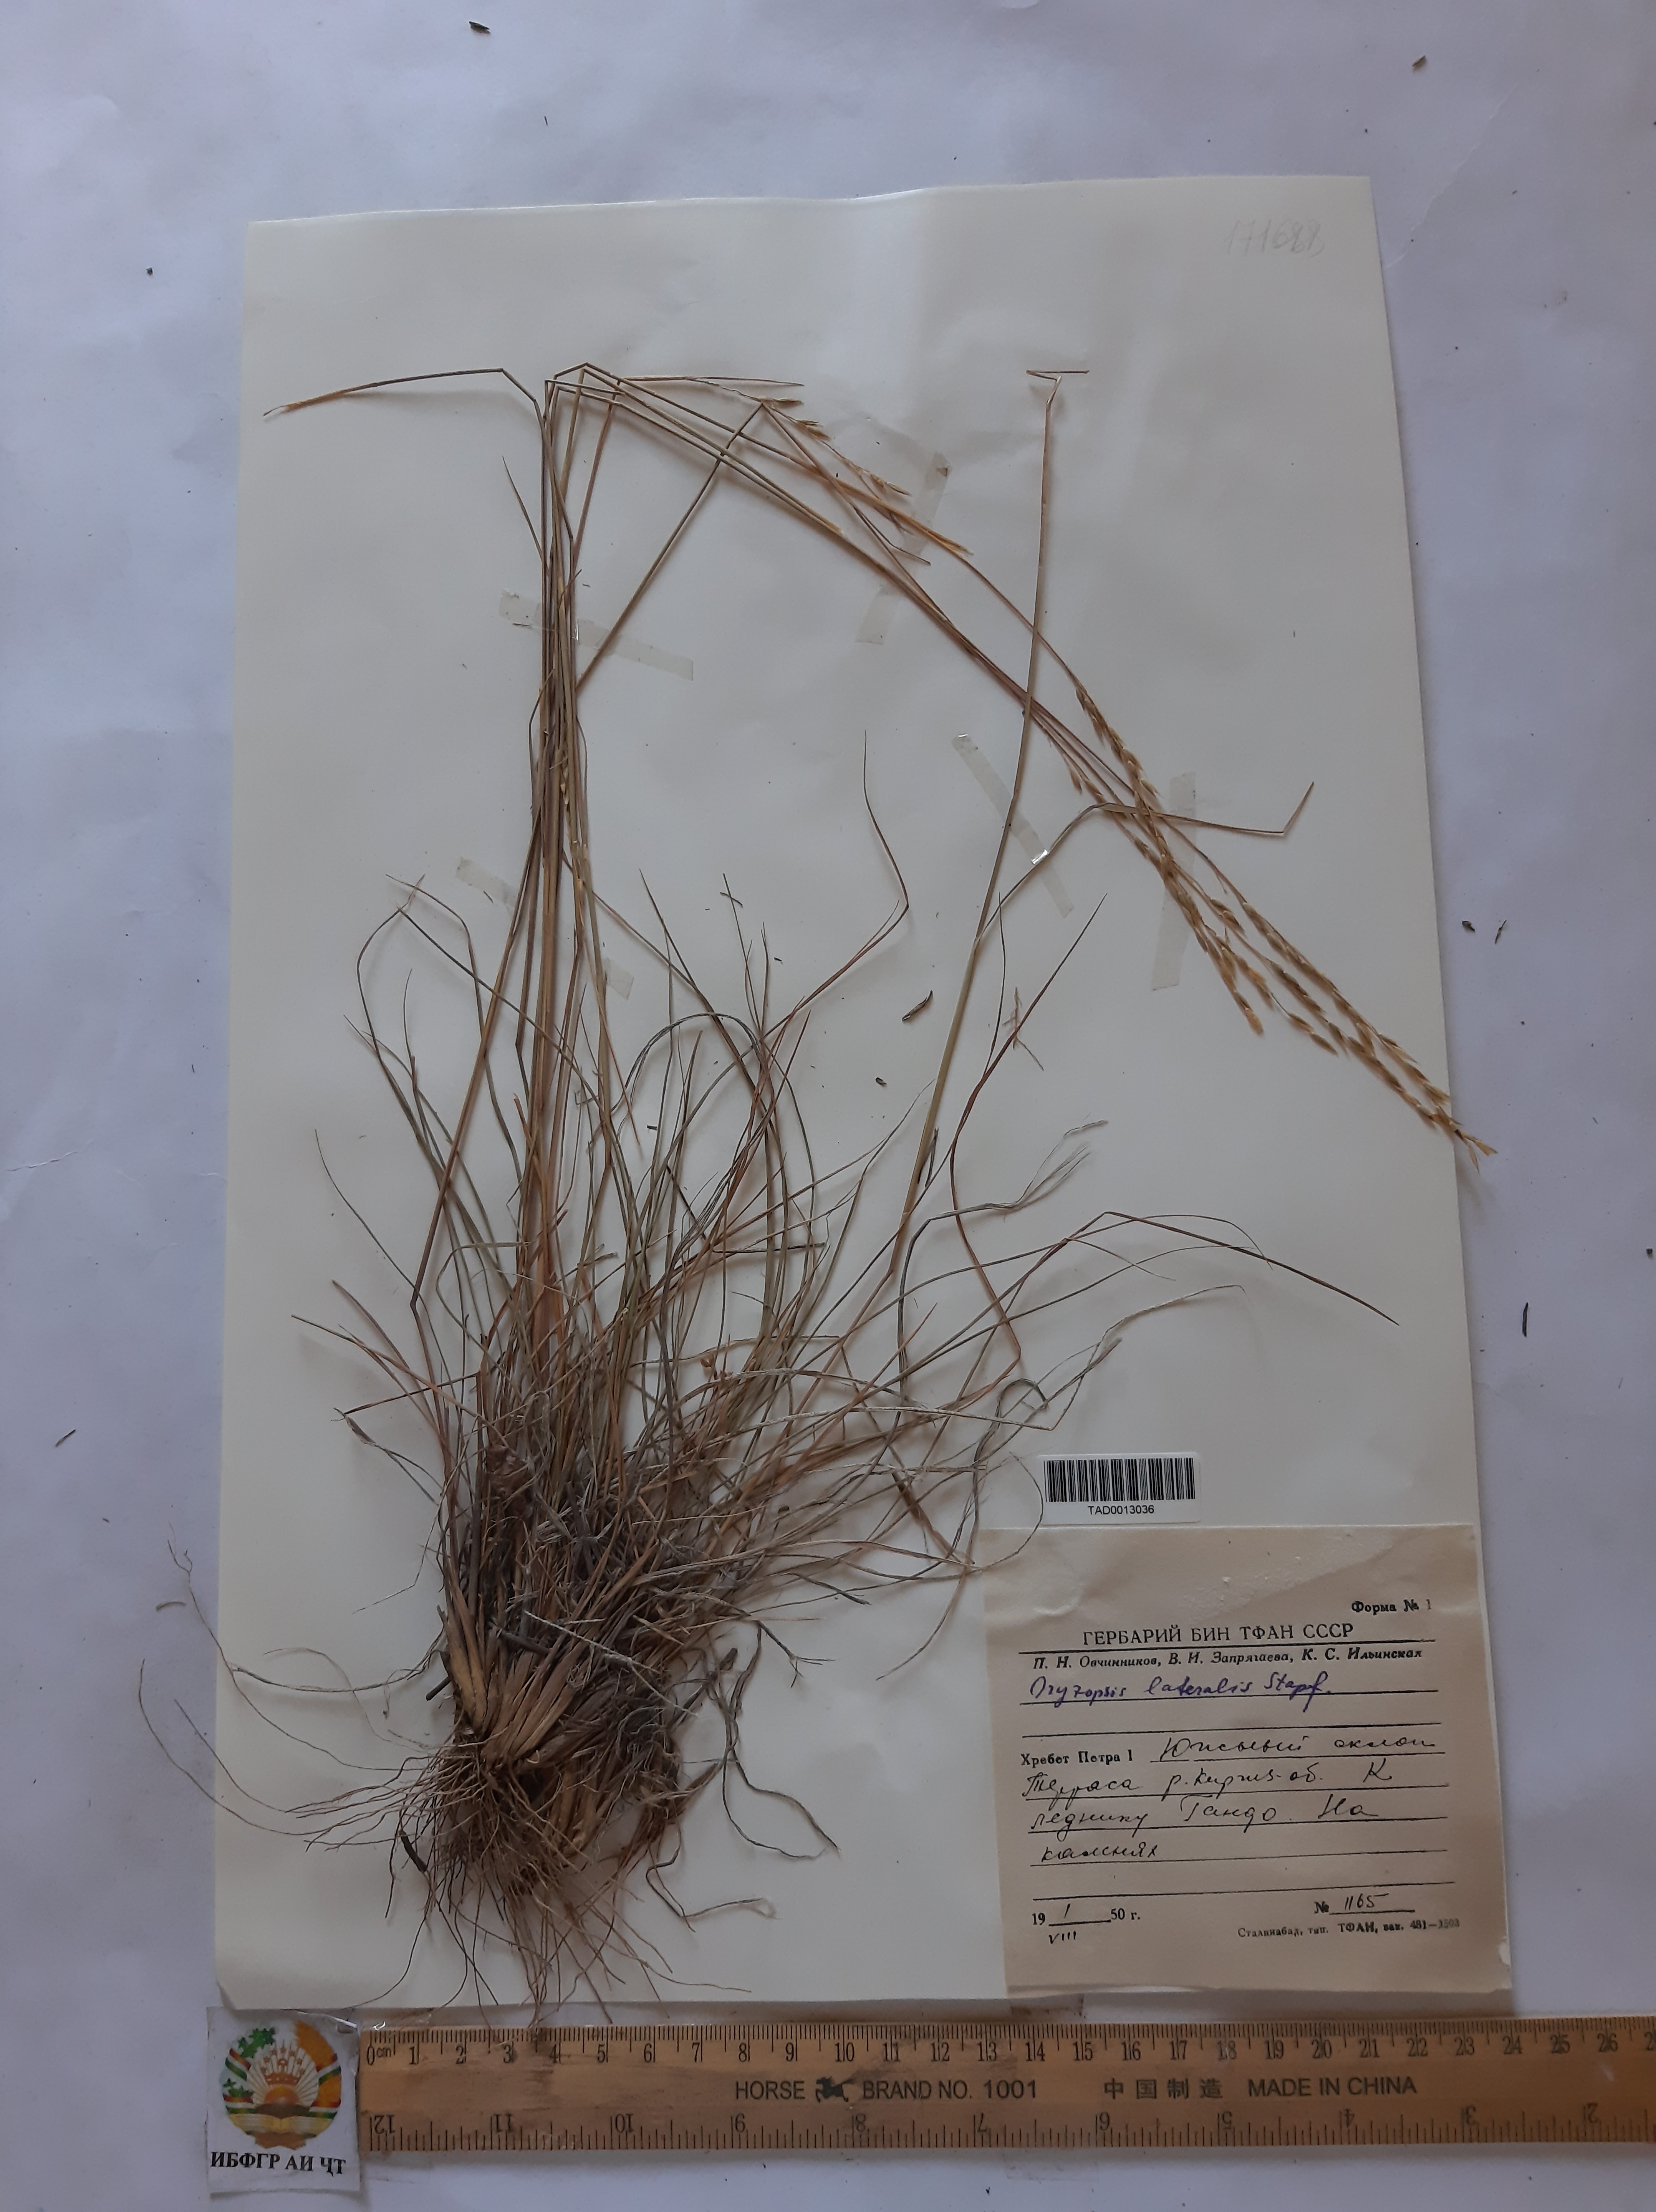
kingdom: Plantae
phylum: Tracheophyta
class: Liliopsida
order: Poales
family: Poaceae
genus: Piptatherum
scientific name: Piptatherum laterale
